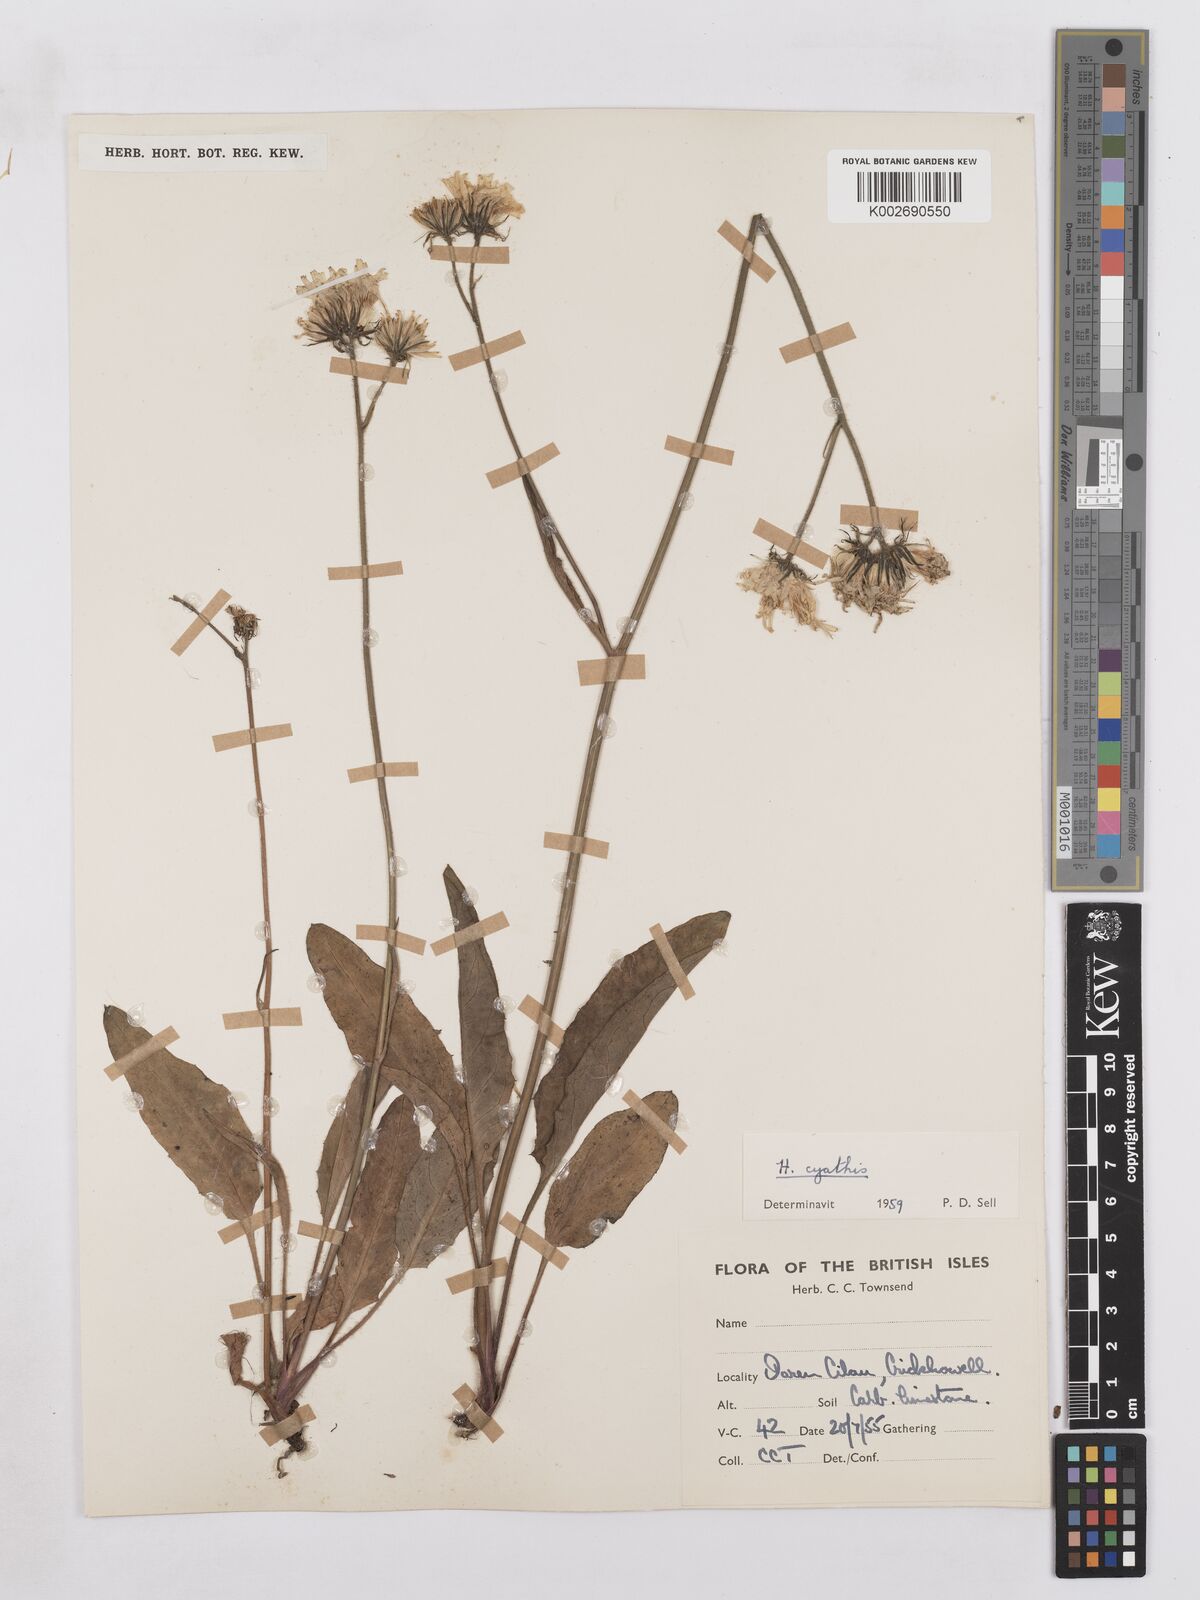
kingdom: Plantae
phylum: Tracheophyta
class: Magnoliopsida
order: Asterales
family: Asteraceae
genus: Hieracium
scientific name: Hieracium hypochoeroides
